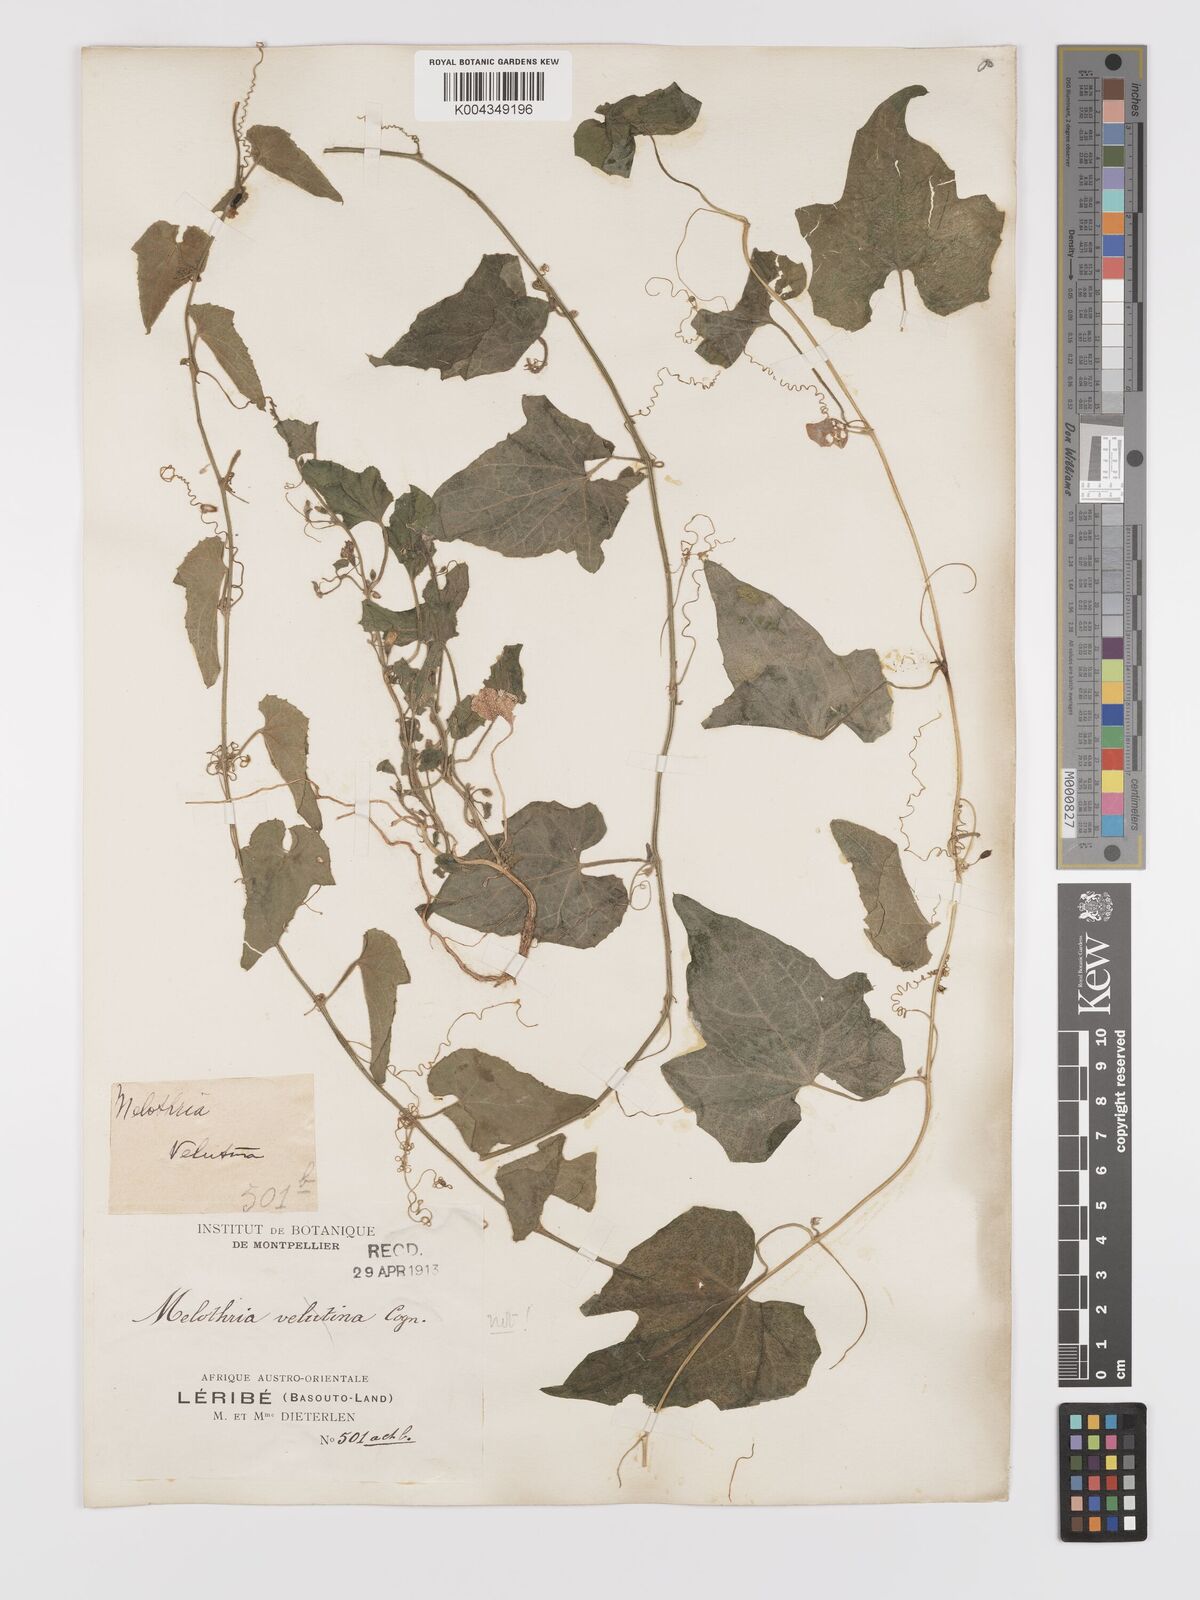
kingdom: Plantae
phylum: Tracheophyta
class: Magnoliopsida
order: Cucurbitales
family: Cucurbitaceae
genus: Cucumis
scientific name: Cucumis maderaspatanus
